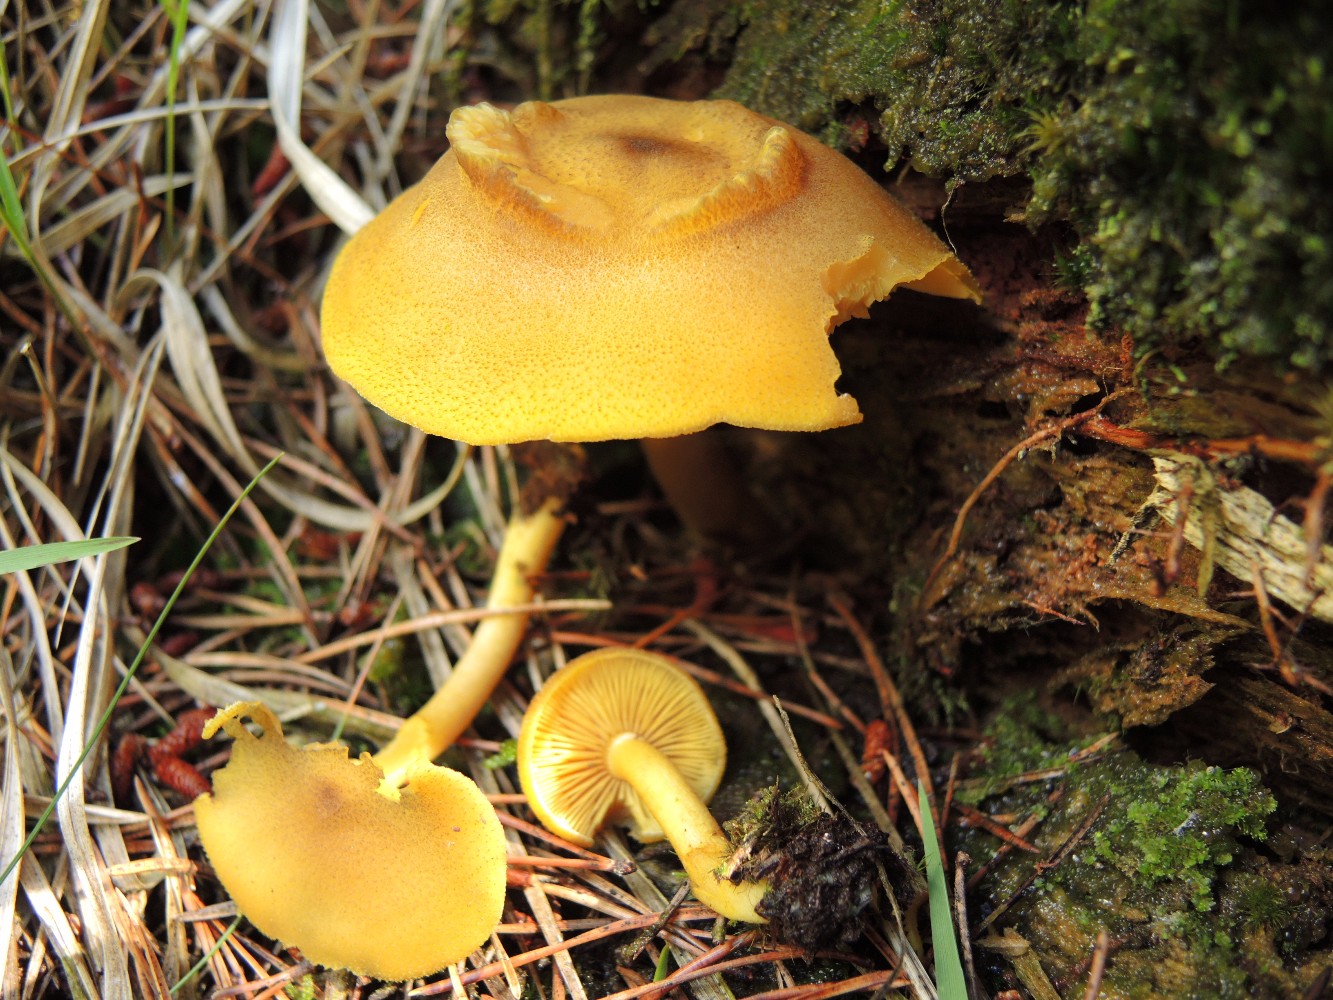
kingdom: Fungi
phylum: Basidiomycota
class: Agaricomycetes
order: Agaricales
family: Tricholomataceae
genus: Tricholomopsis
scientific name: Tricholomopsis decora
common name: sortskællet væbnerhat
